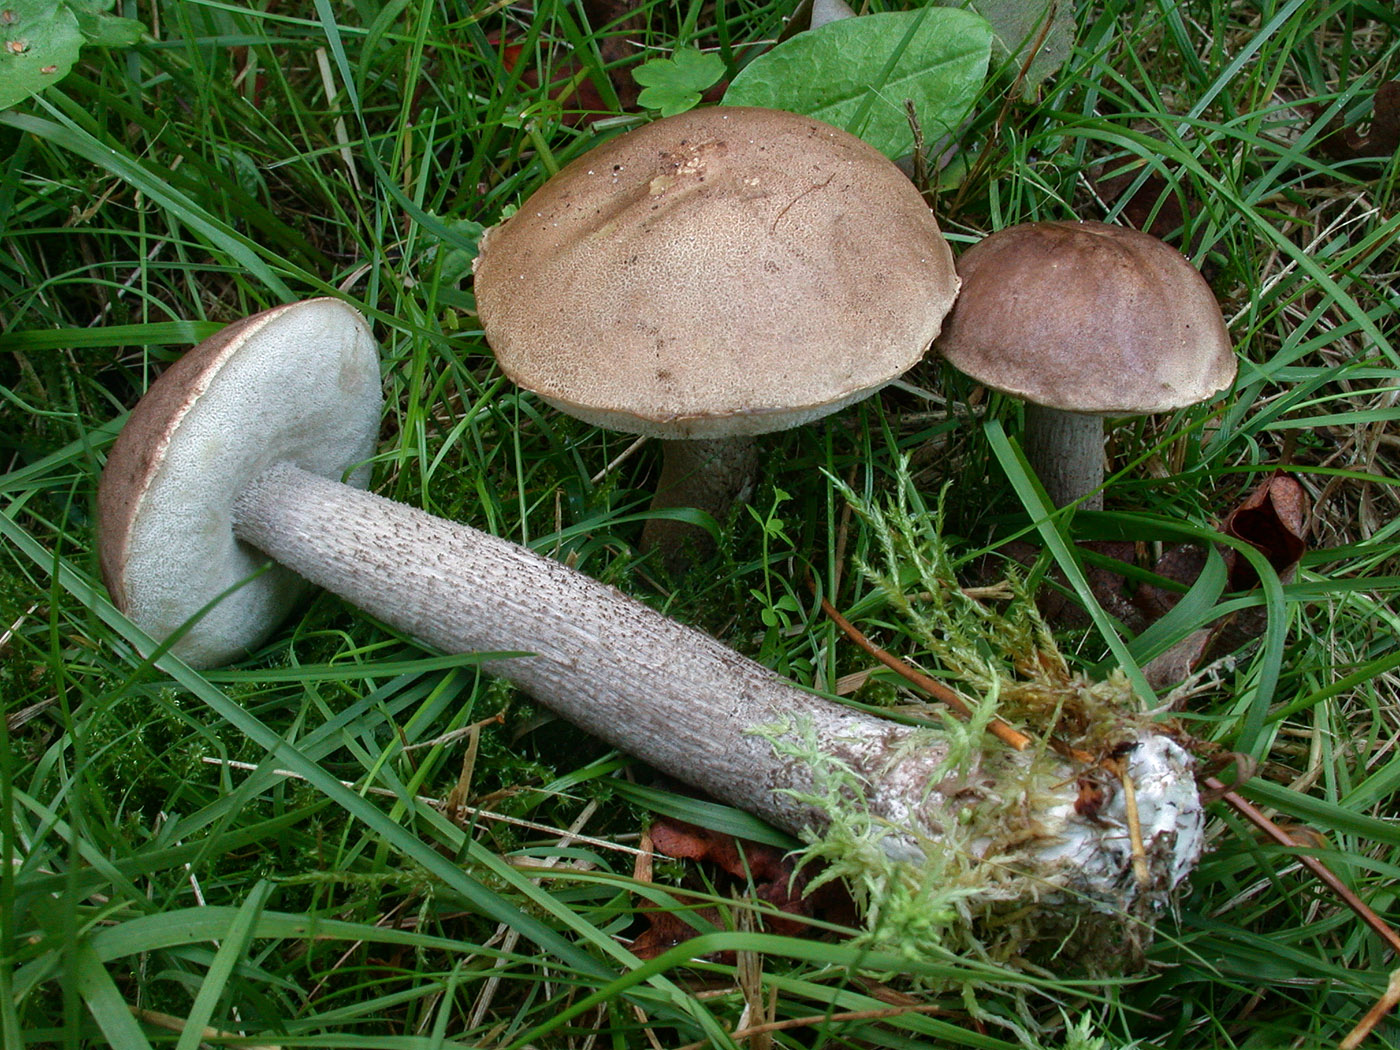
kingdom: Fungi
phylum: Basidiomycota
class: Agaricomycetes
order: Boletales
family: Boletaceae
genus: Leccinum
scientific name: Leccinum cyaneobasileucum
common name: almindelig skælrørhat
